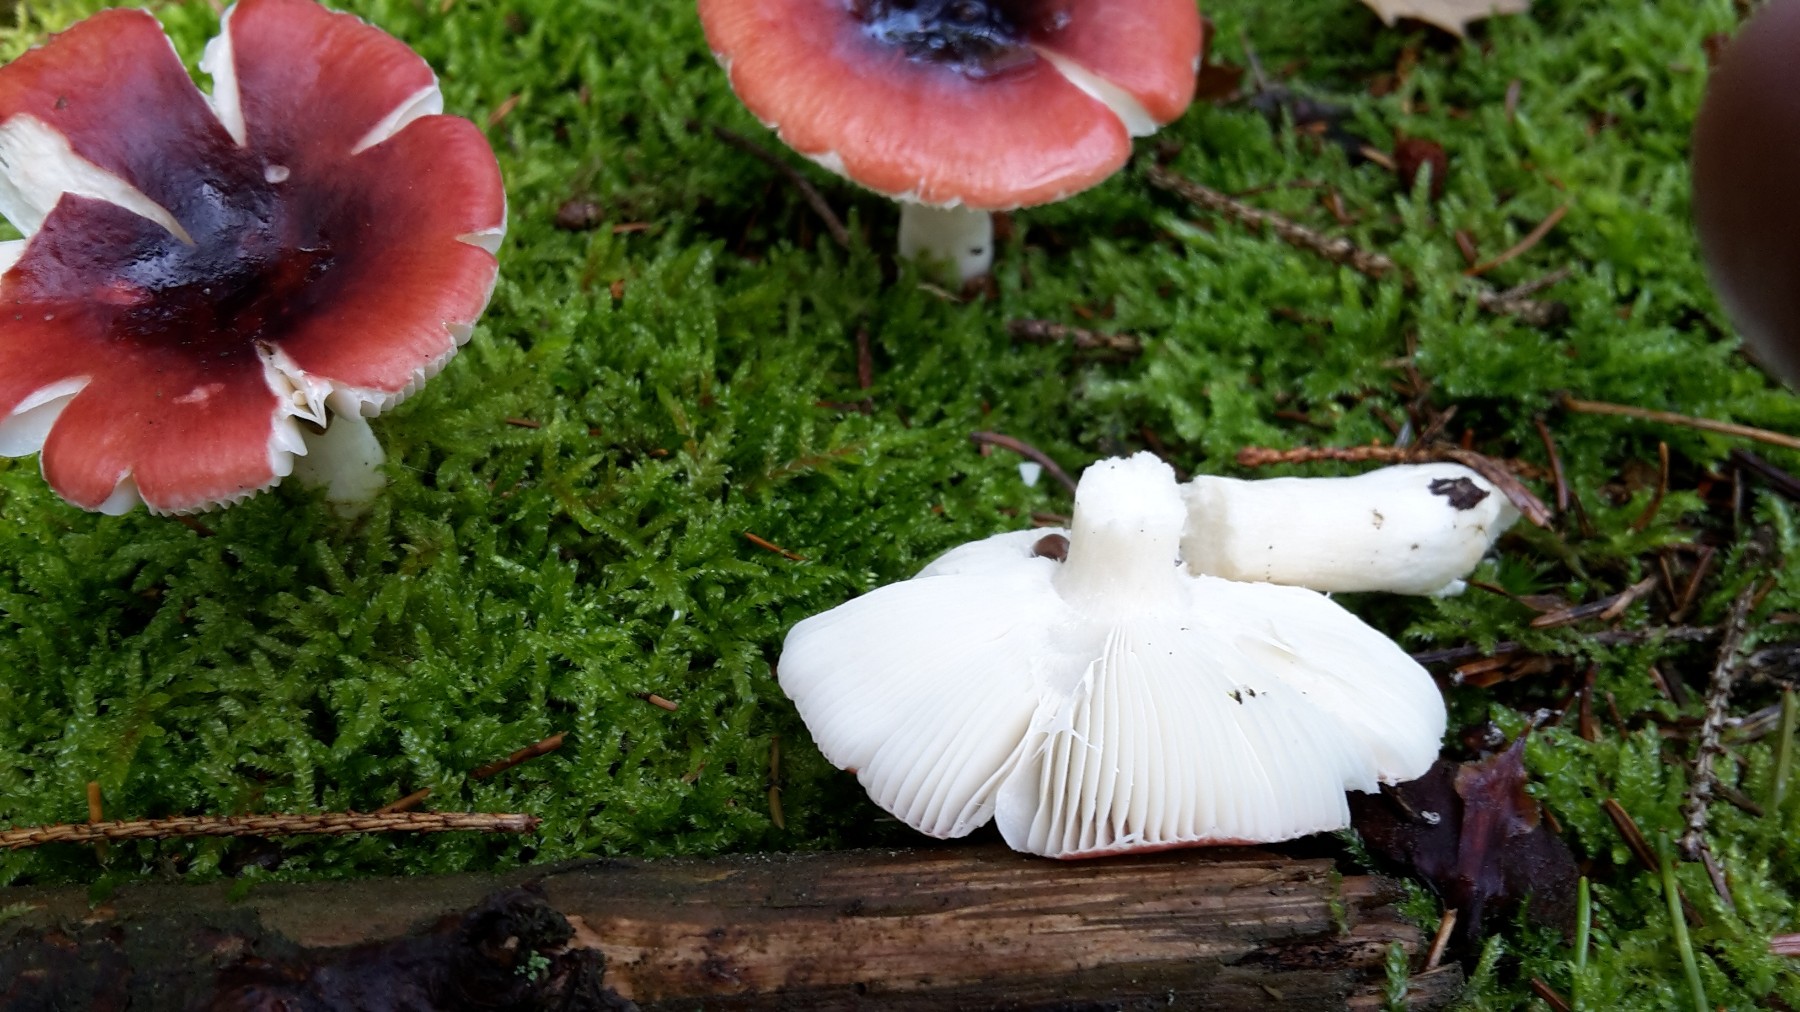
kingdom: Fungi
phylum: Basidiomycota
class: Agaricomycetes
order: Russulales
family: Russulaceae
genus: Russula
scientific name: Russula atrorubens
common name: sortrød skørhat
